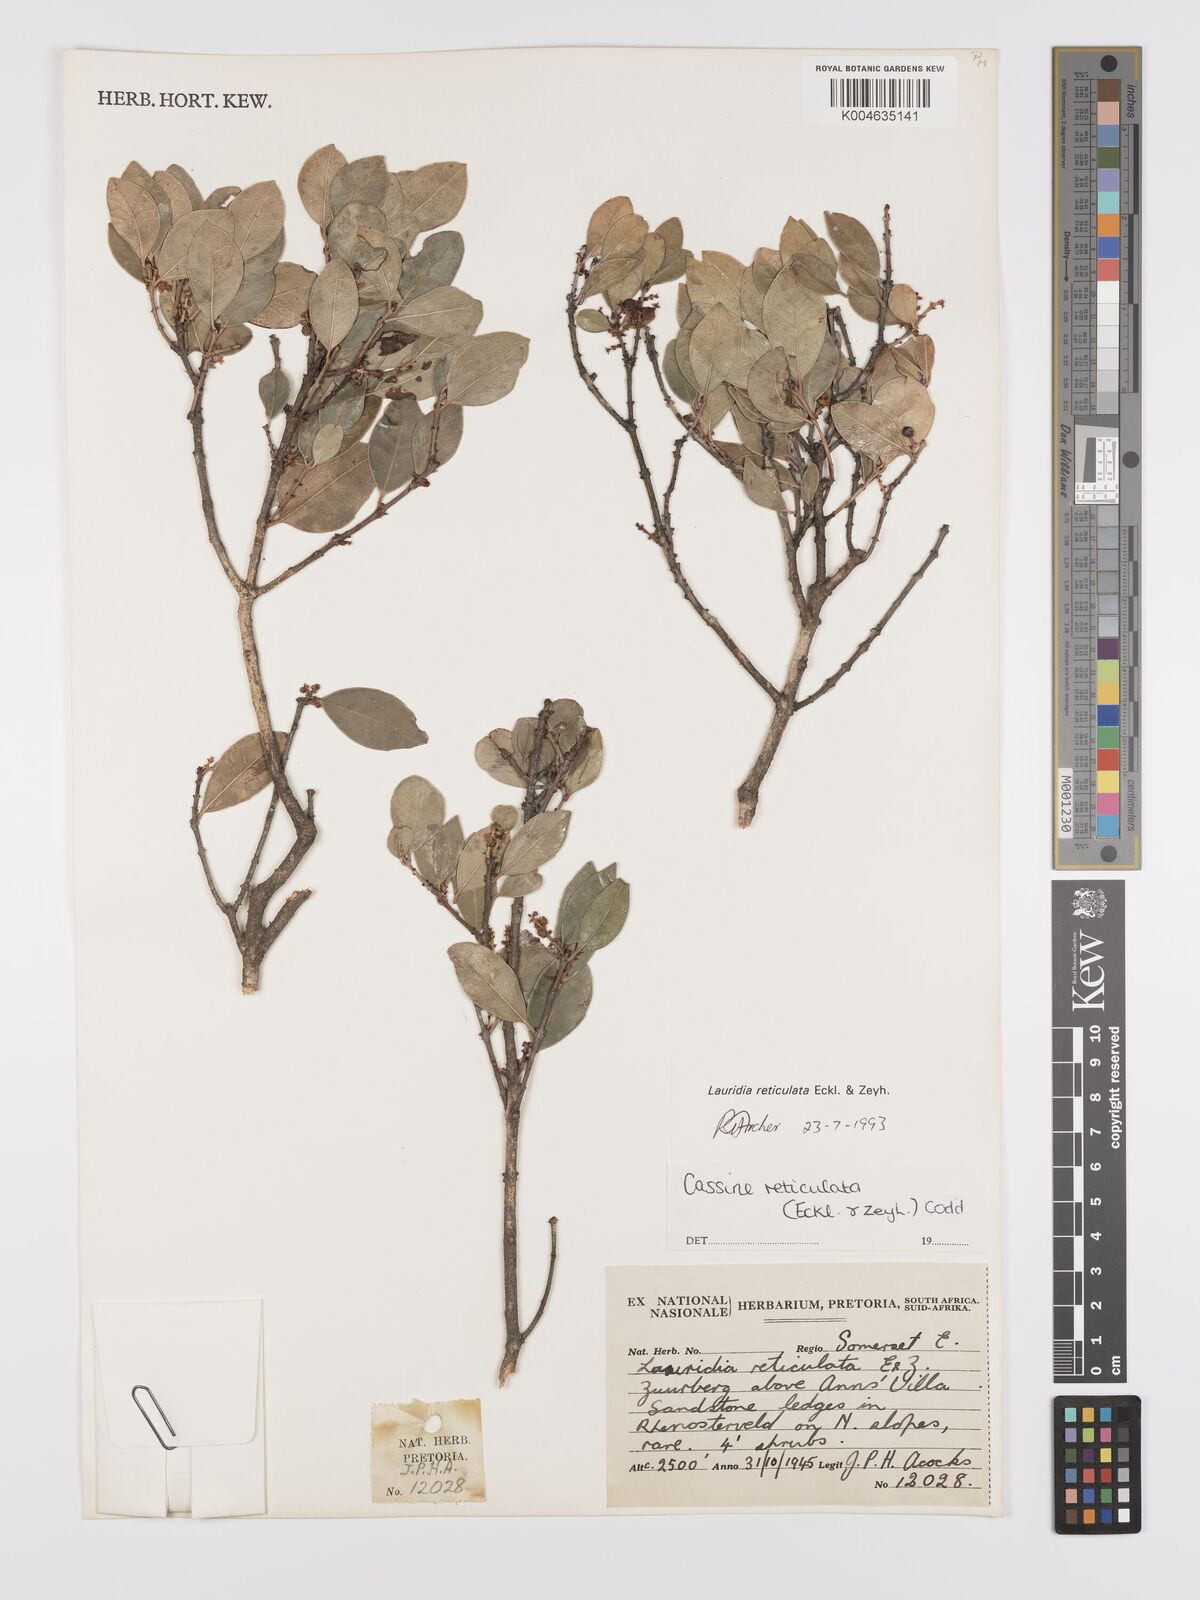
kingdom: Plantae
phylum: Tracheophyta
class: Magnoliopsida
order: Celastrales
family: Celastraceae
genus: Lauridia
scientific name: Lauridia reticulata
